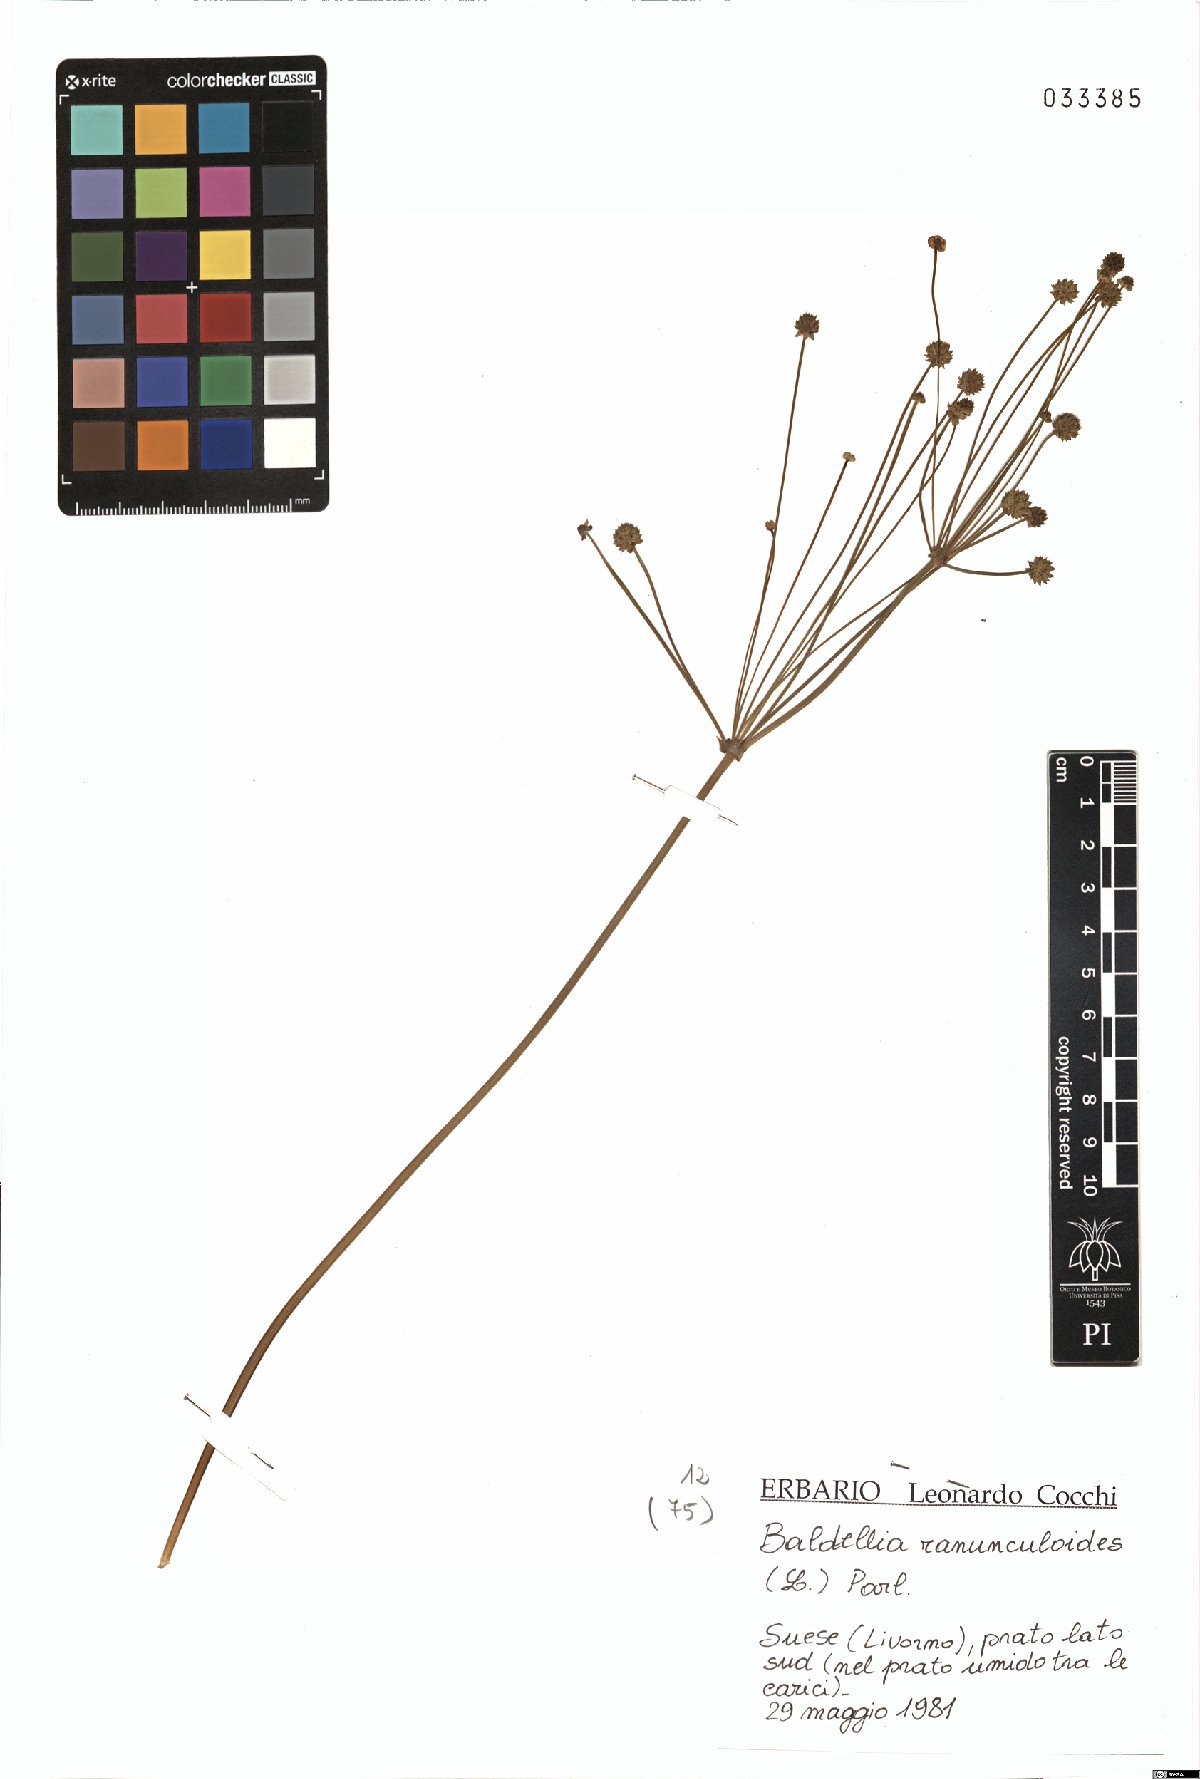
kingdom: Plantae
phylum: Tracheophyta
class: Liliopsida
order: Alismatales
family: Alismataceae
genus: Baldellia
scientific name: Baldellia ranunculoides
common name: Lesser water-plantain
